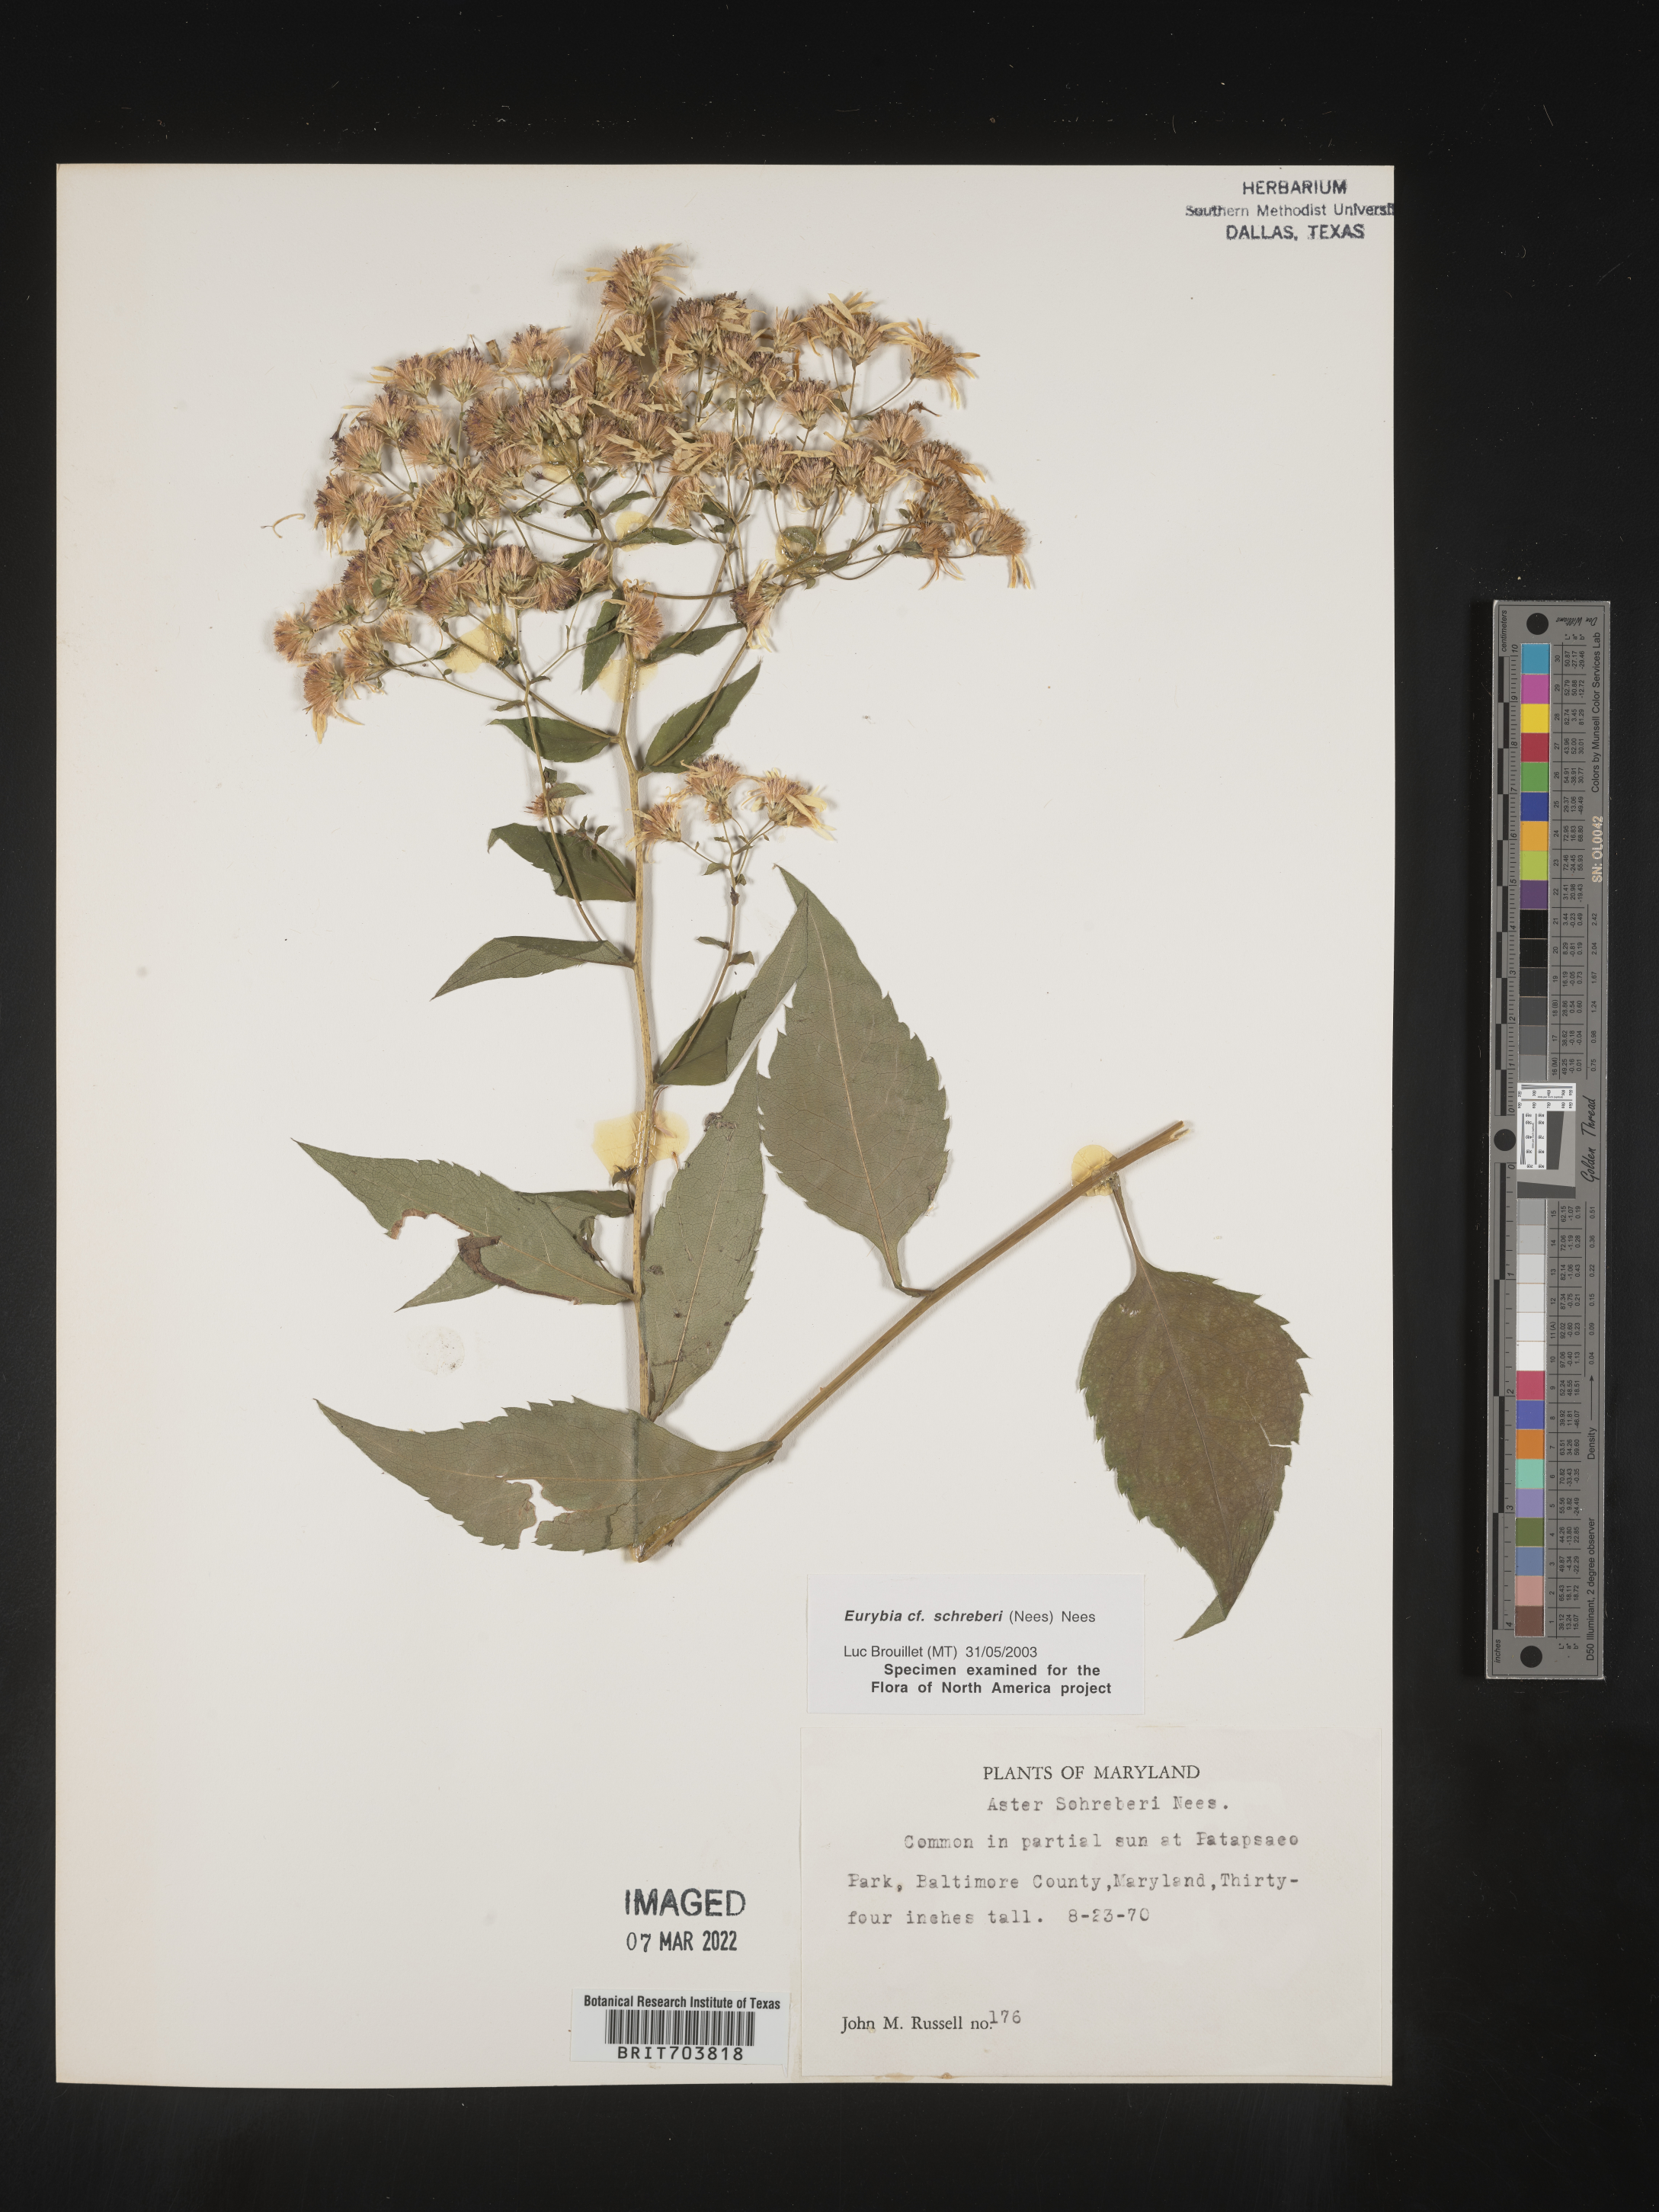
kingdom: Plantae
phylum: Tracheophyta
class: Magnoliopsida
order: Asterales
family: Asteraceae
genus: Eurybia
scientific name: Eurybia schreberi
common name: Schreber's aster
